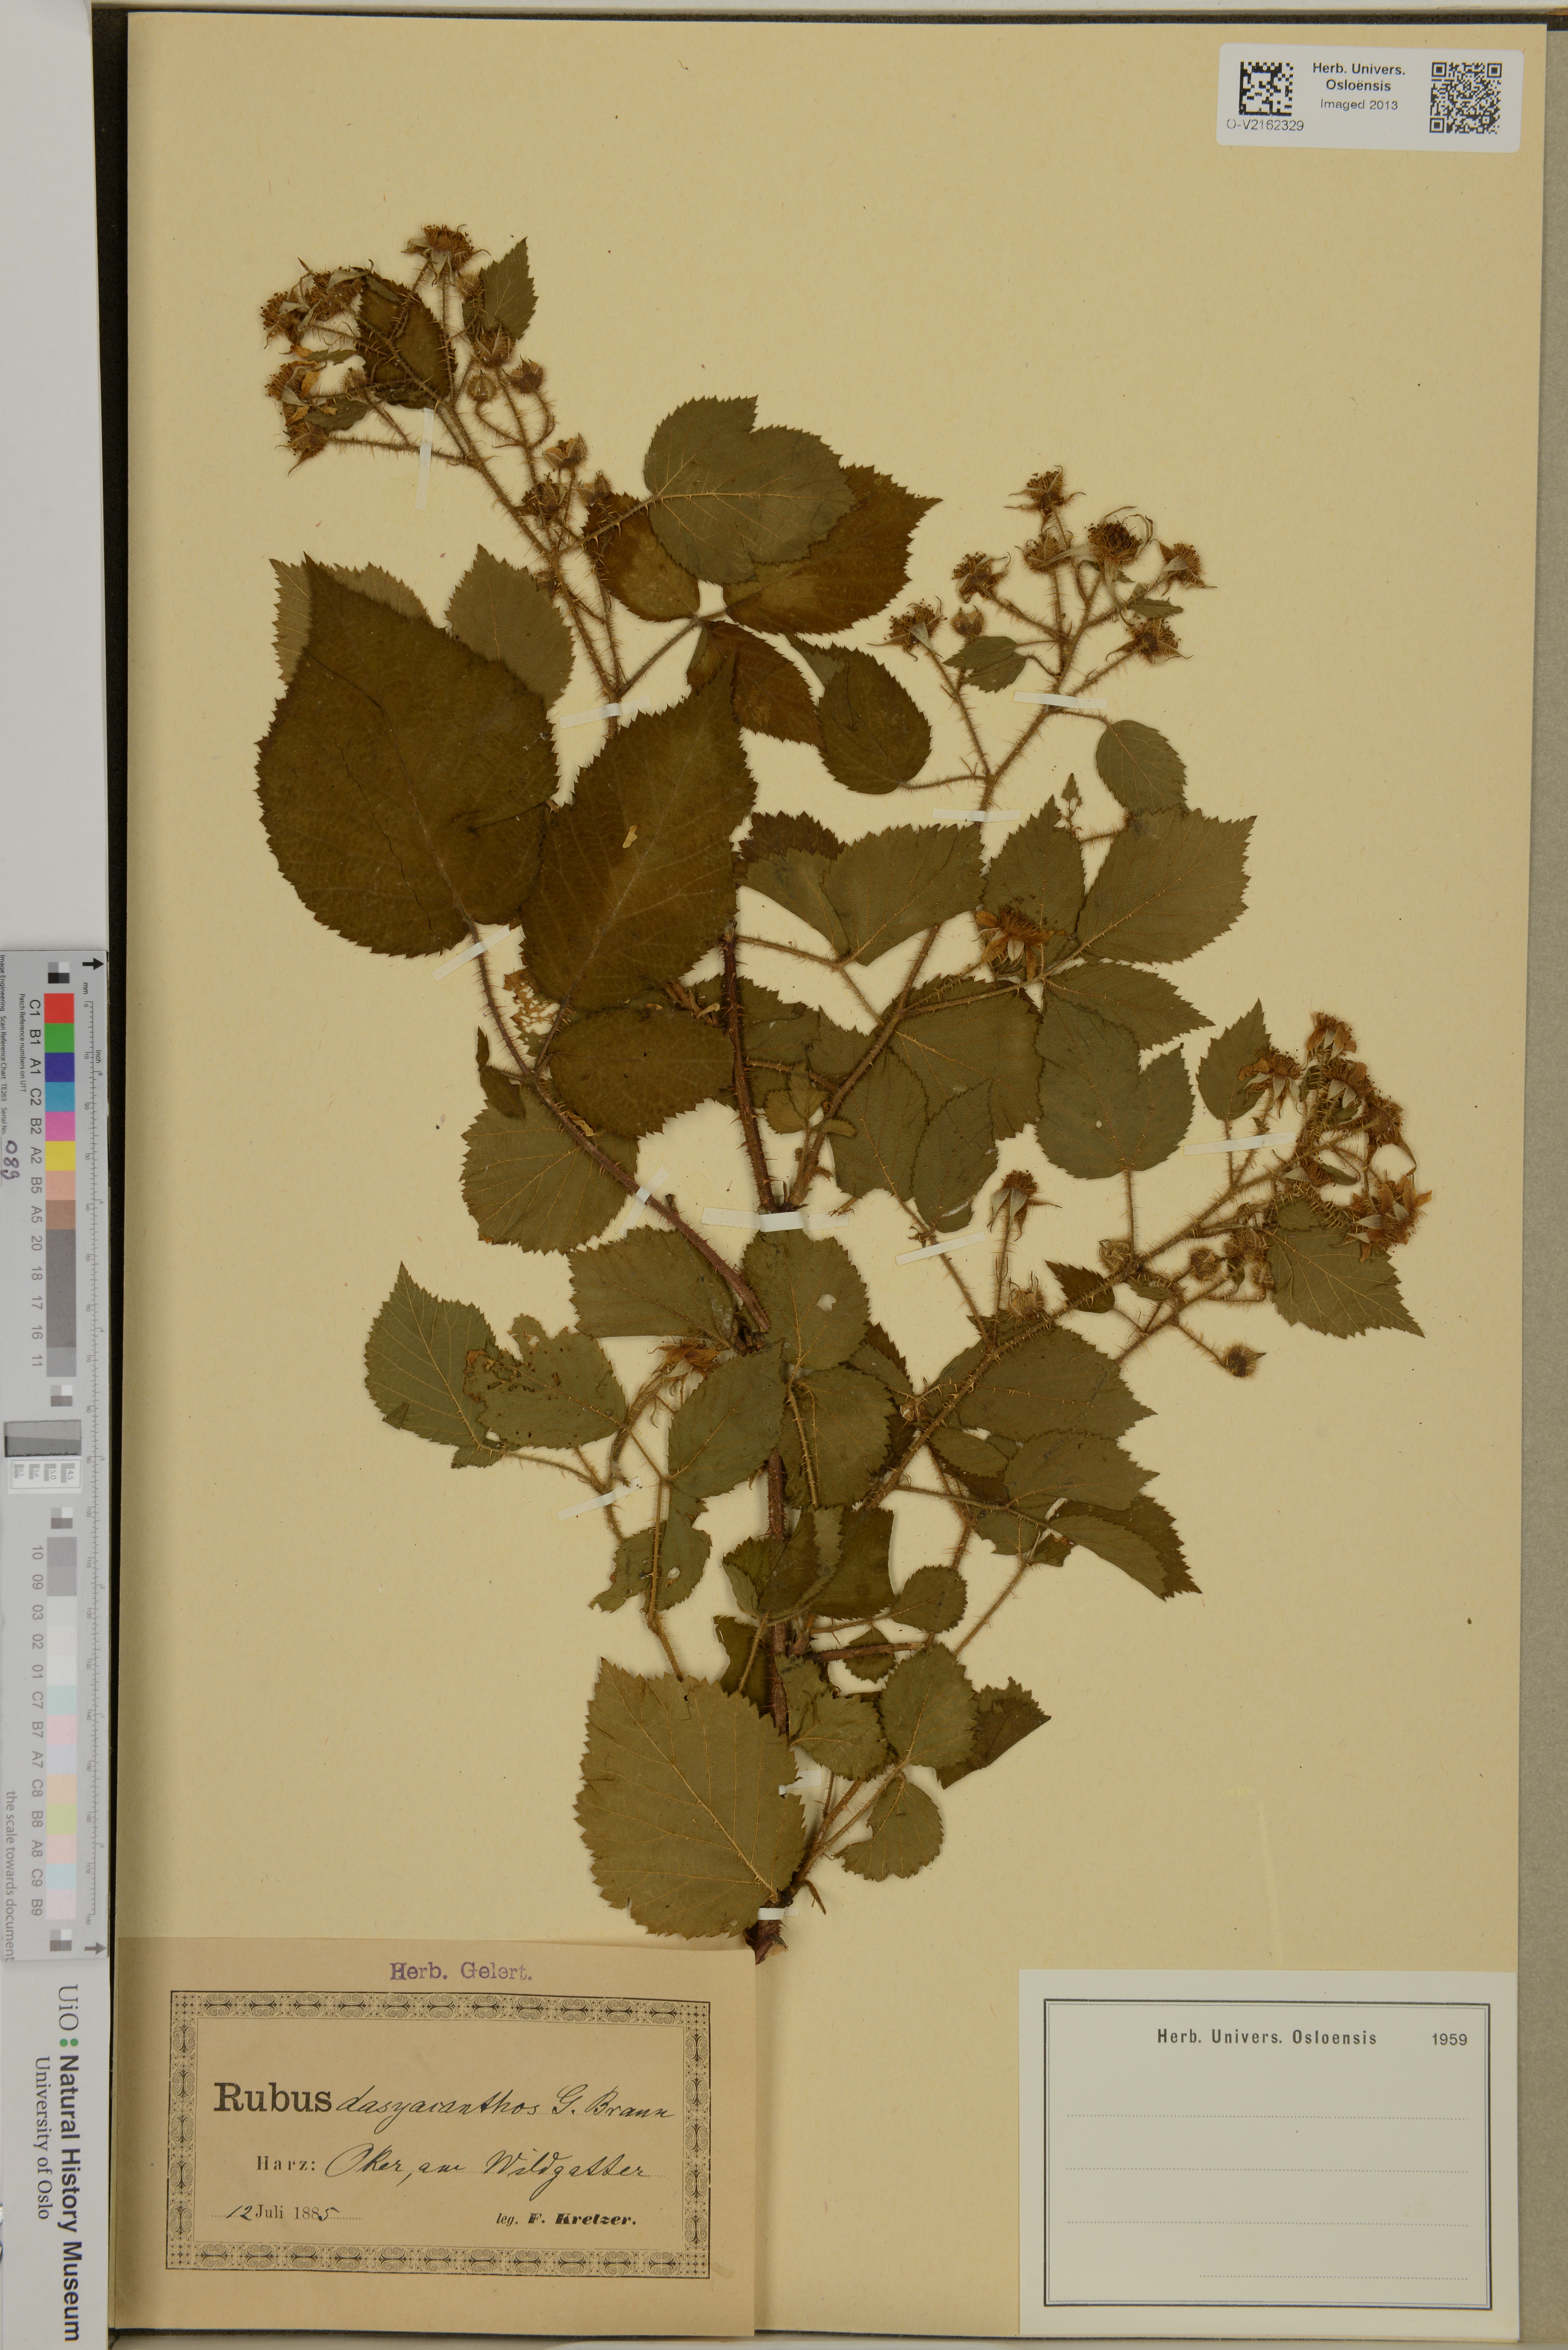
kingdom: Plantae
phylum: Tracheophyta
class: Magnoliopsida
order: Rosales
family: Rosaceae
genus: Rubus
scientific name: Rubus rivularis
